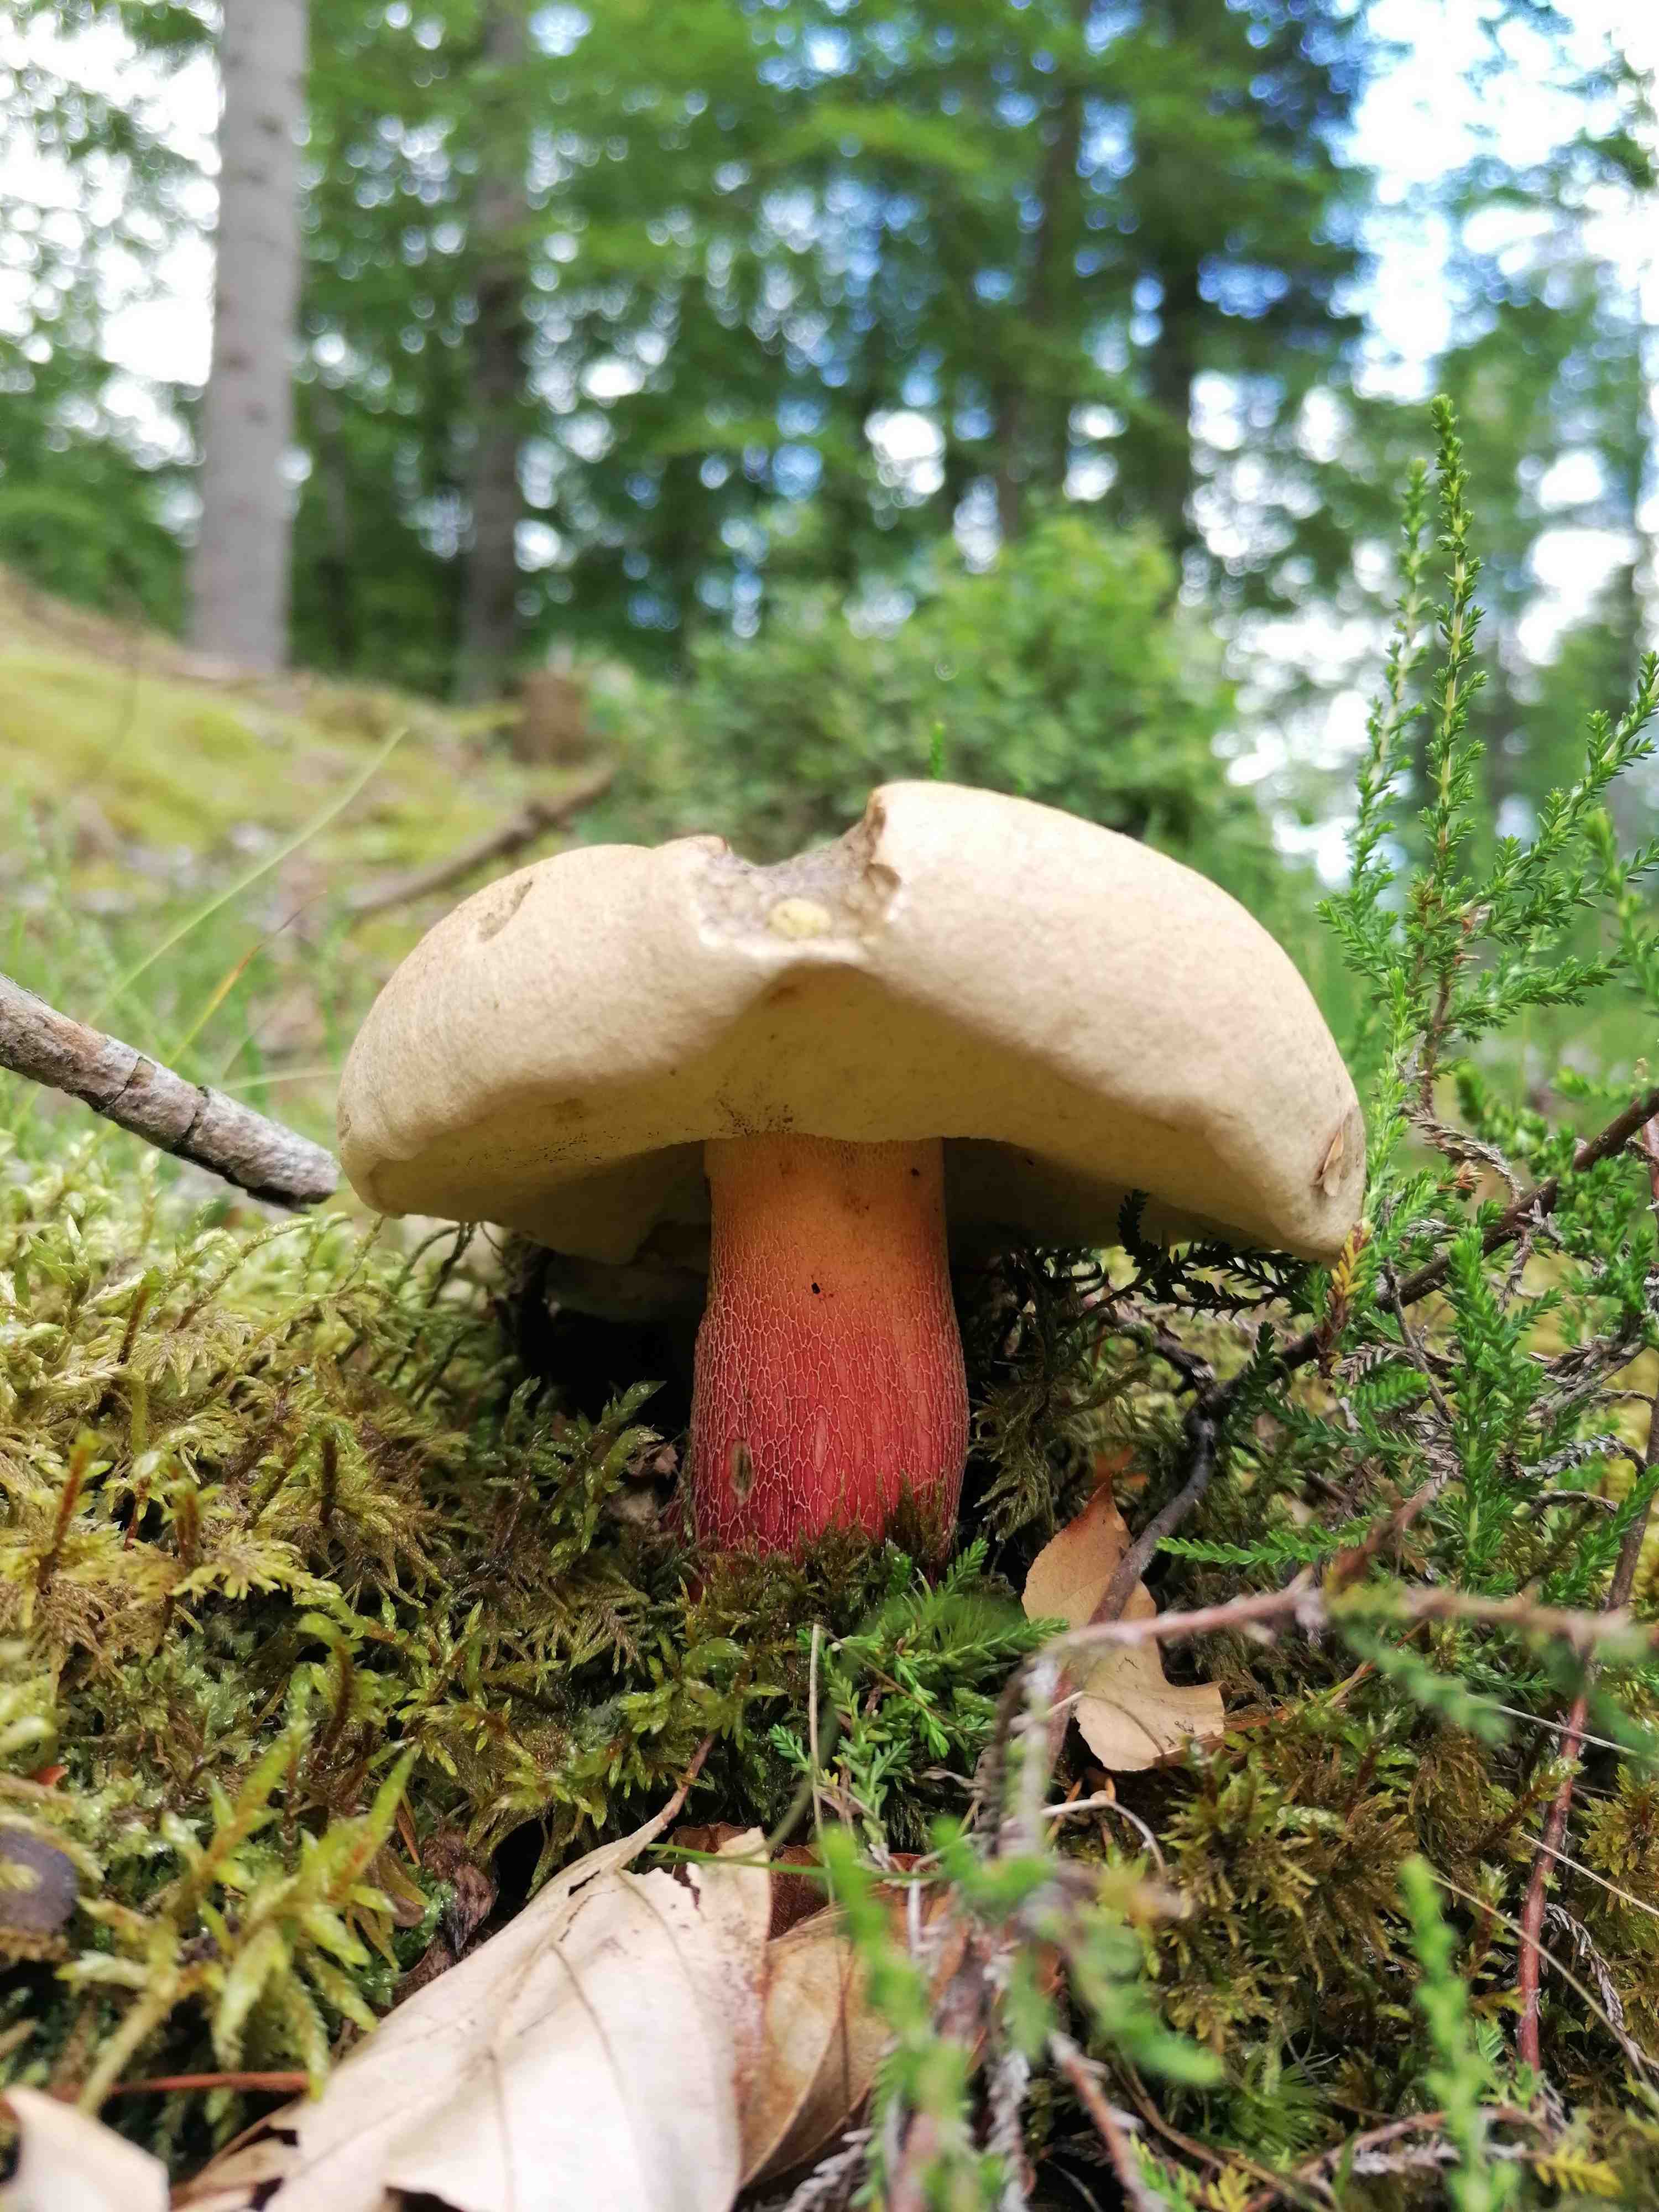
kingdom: Fungi
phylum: Basidiomycota
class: Agaricomycetes
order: Boletales
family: Boletaceae
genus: Caloboletus
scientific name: Caloboletus calopus
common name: skønfodet rørhat
